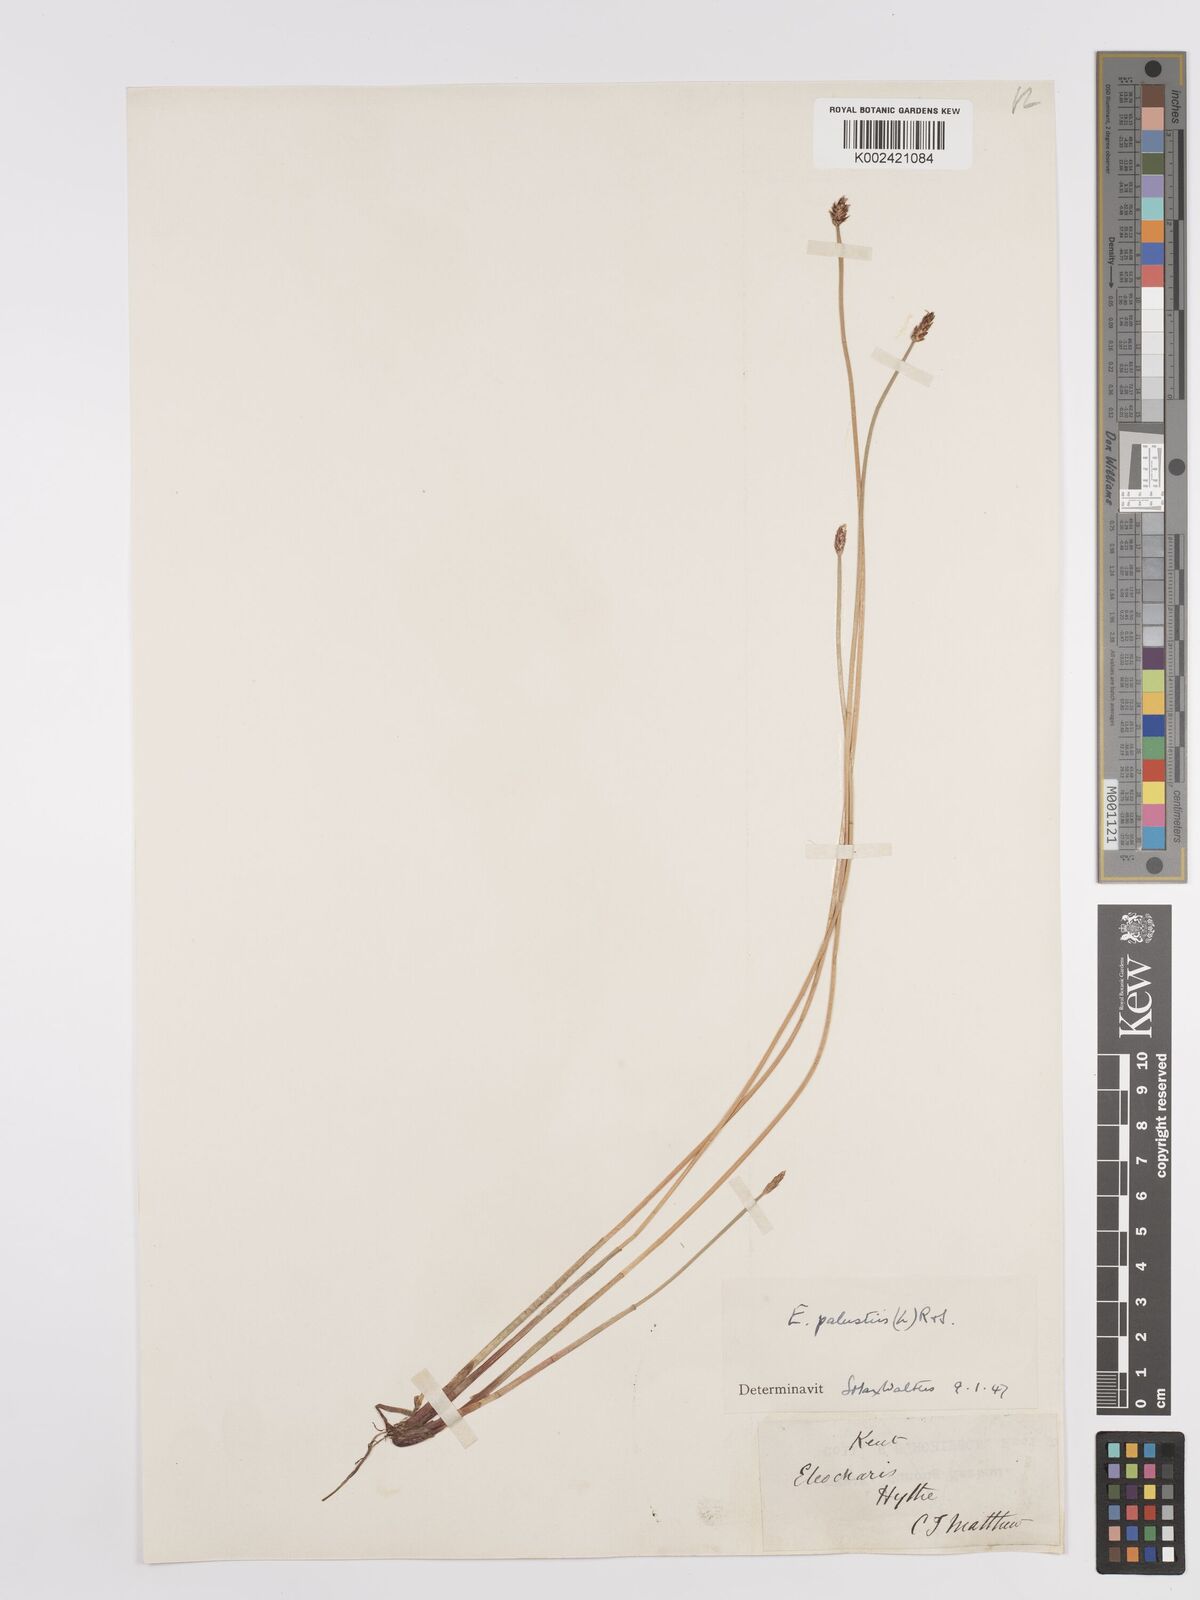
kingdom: Plantae
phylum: Tracheophyta
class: Liliopsida
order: Poales
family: Cyperaceae
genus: Eleocharis
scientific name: Eleocharis palustris
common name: Common spike-rush
